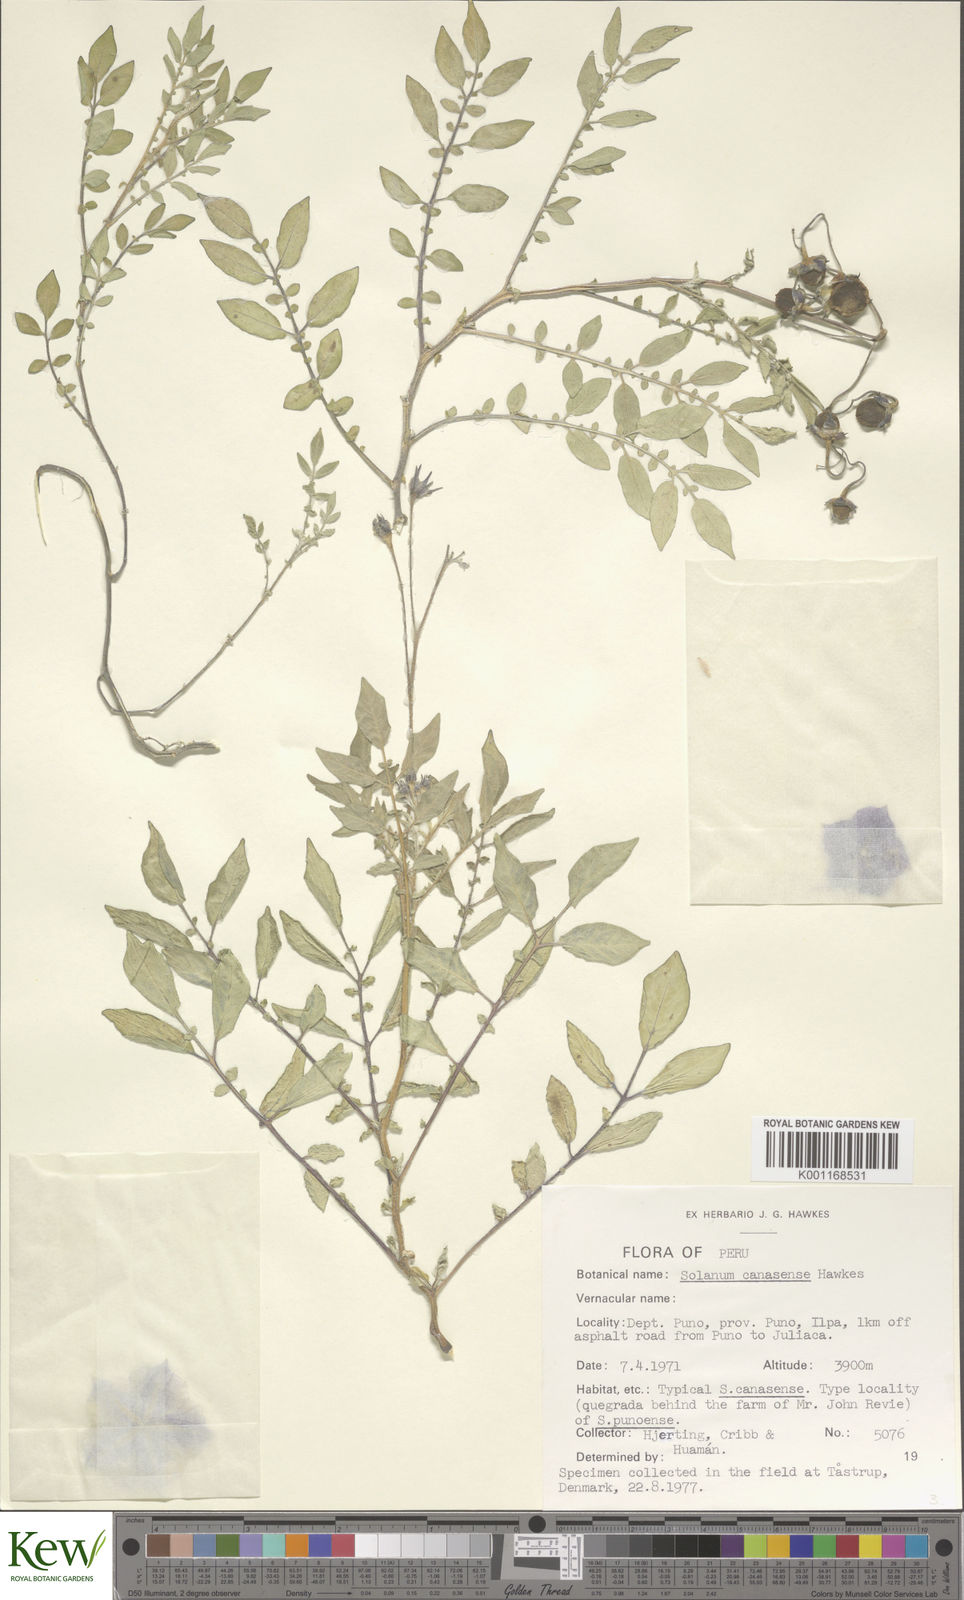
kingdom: Plantae
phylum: Tracheophyta
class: Magnoliopsida
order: Solanales
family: Solanaceae
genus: Solanum
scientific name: Solanum candolleanum
